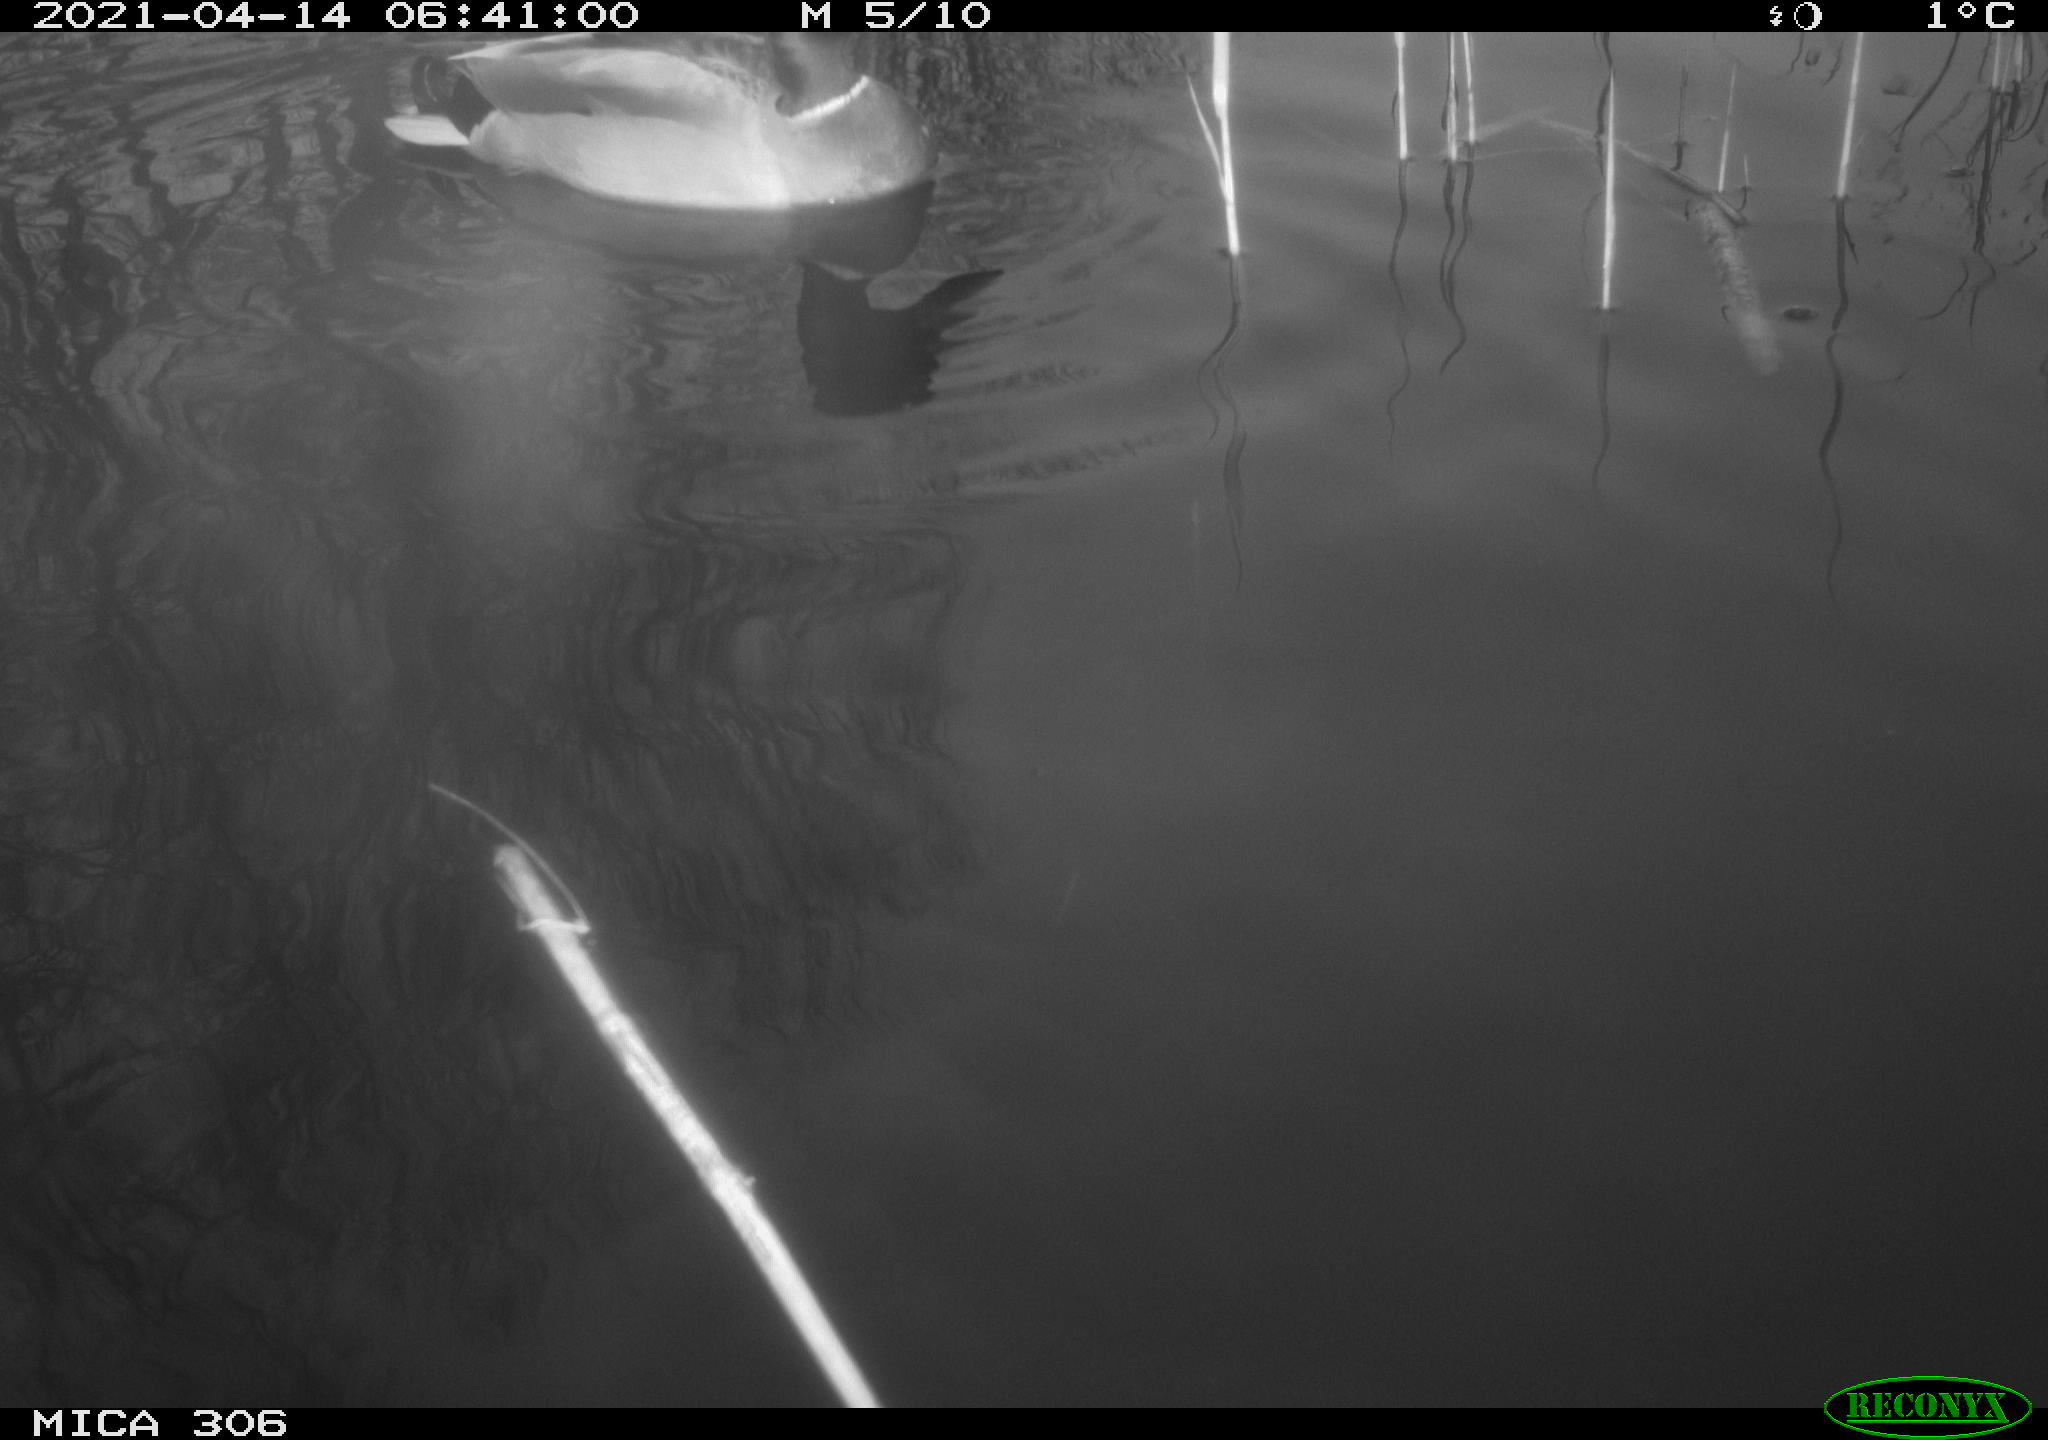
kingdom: Animalia
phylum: Chordata
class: Aves
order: Anseriformes
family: Anatidae
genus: Anas
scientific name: Anas
